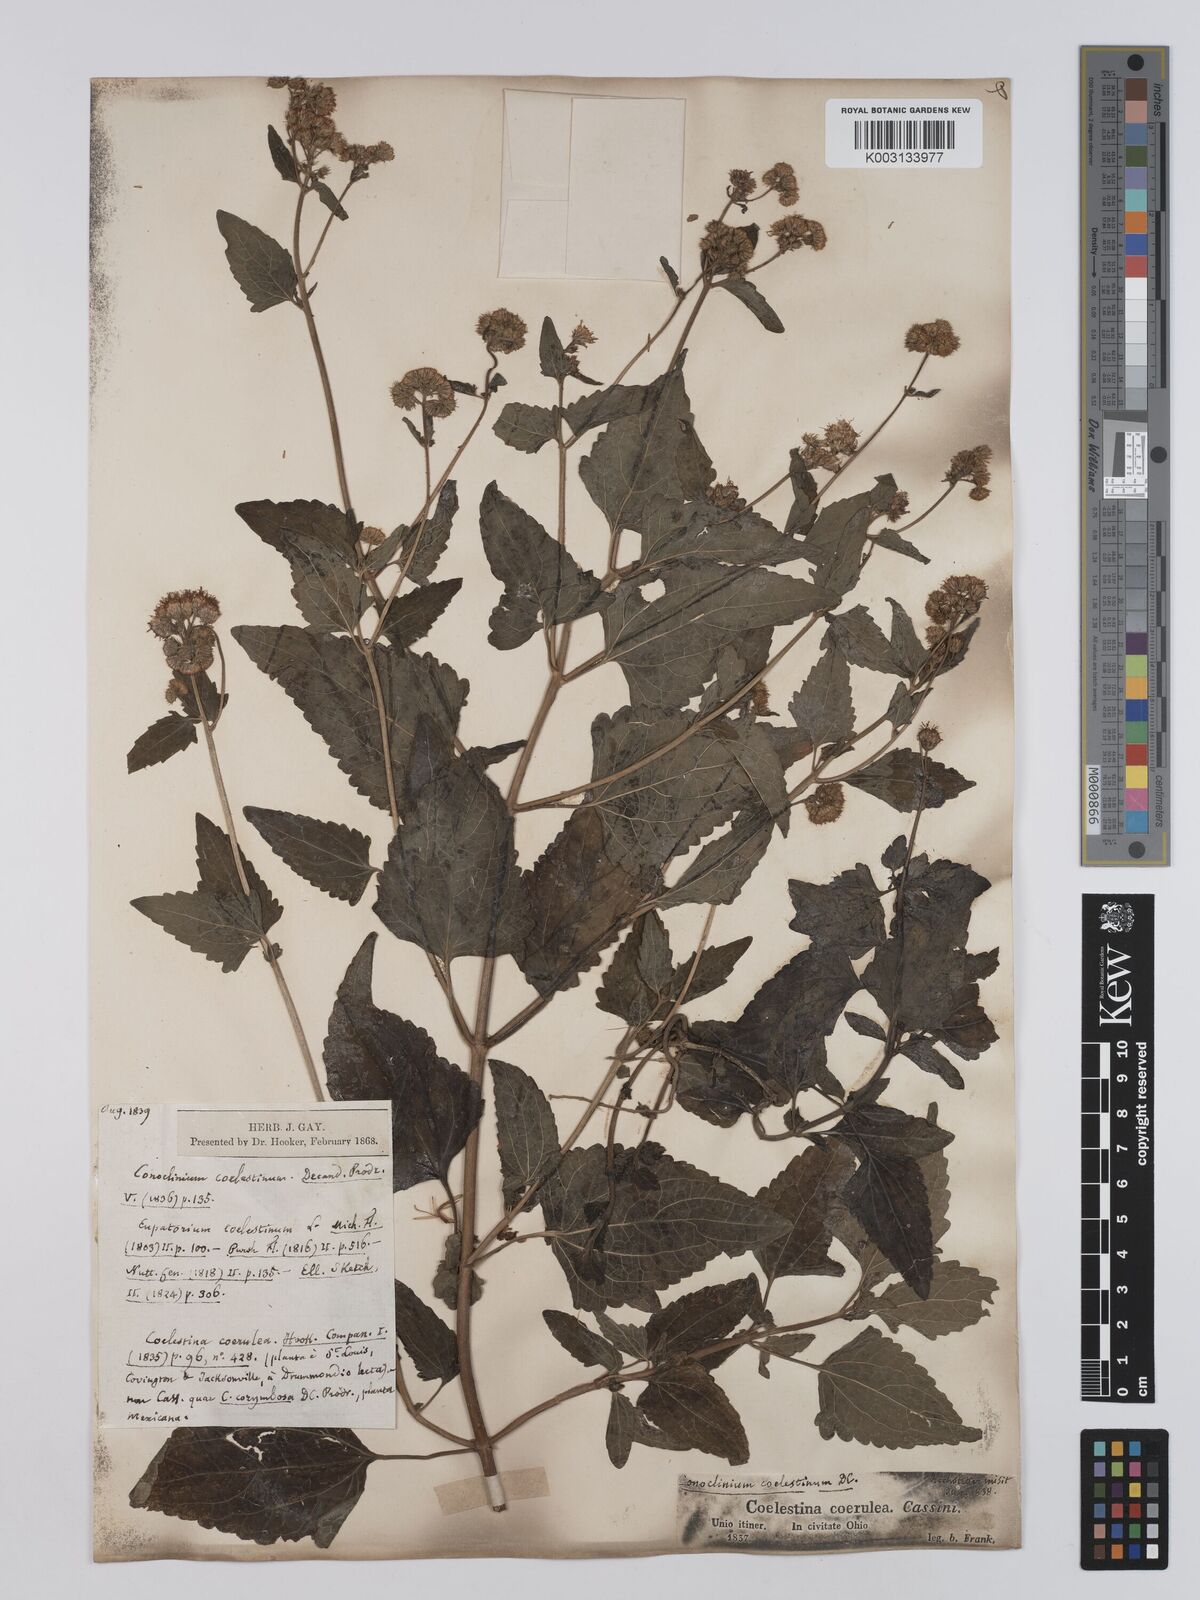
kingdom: Plantae
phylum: Tracheophyta
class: Magnoliopsida
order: Asterales
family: Asteraceae
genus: Conoclinium
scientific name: Conoclinium coelestinum
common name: Blue mistflower
